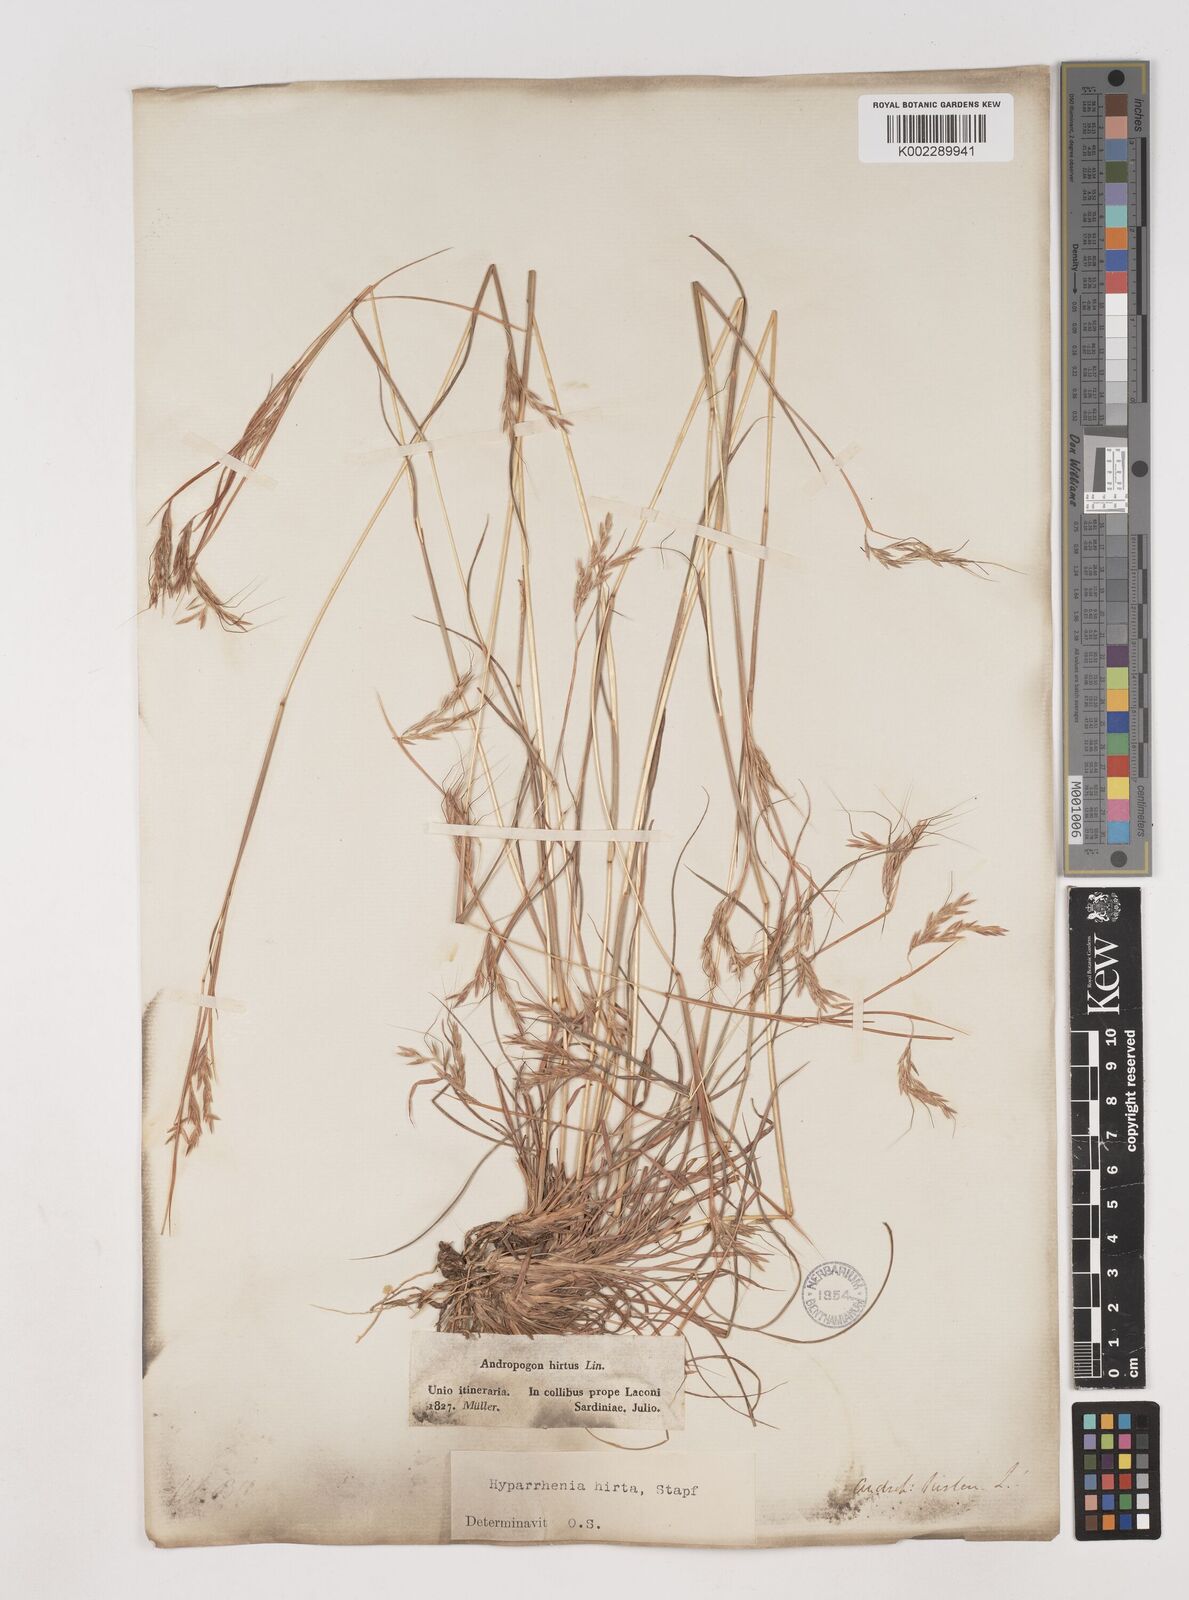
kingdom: Plantae
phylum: Tracheophyta
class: Liliopsida
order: Poales
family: Poaceae
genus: Hyparrhenia
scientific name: Hyparrhenia hirta
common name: Thatching grass
